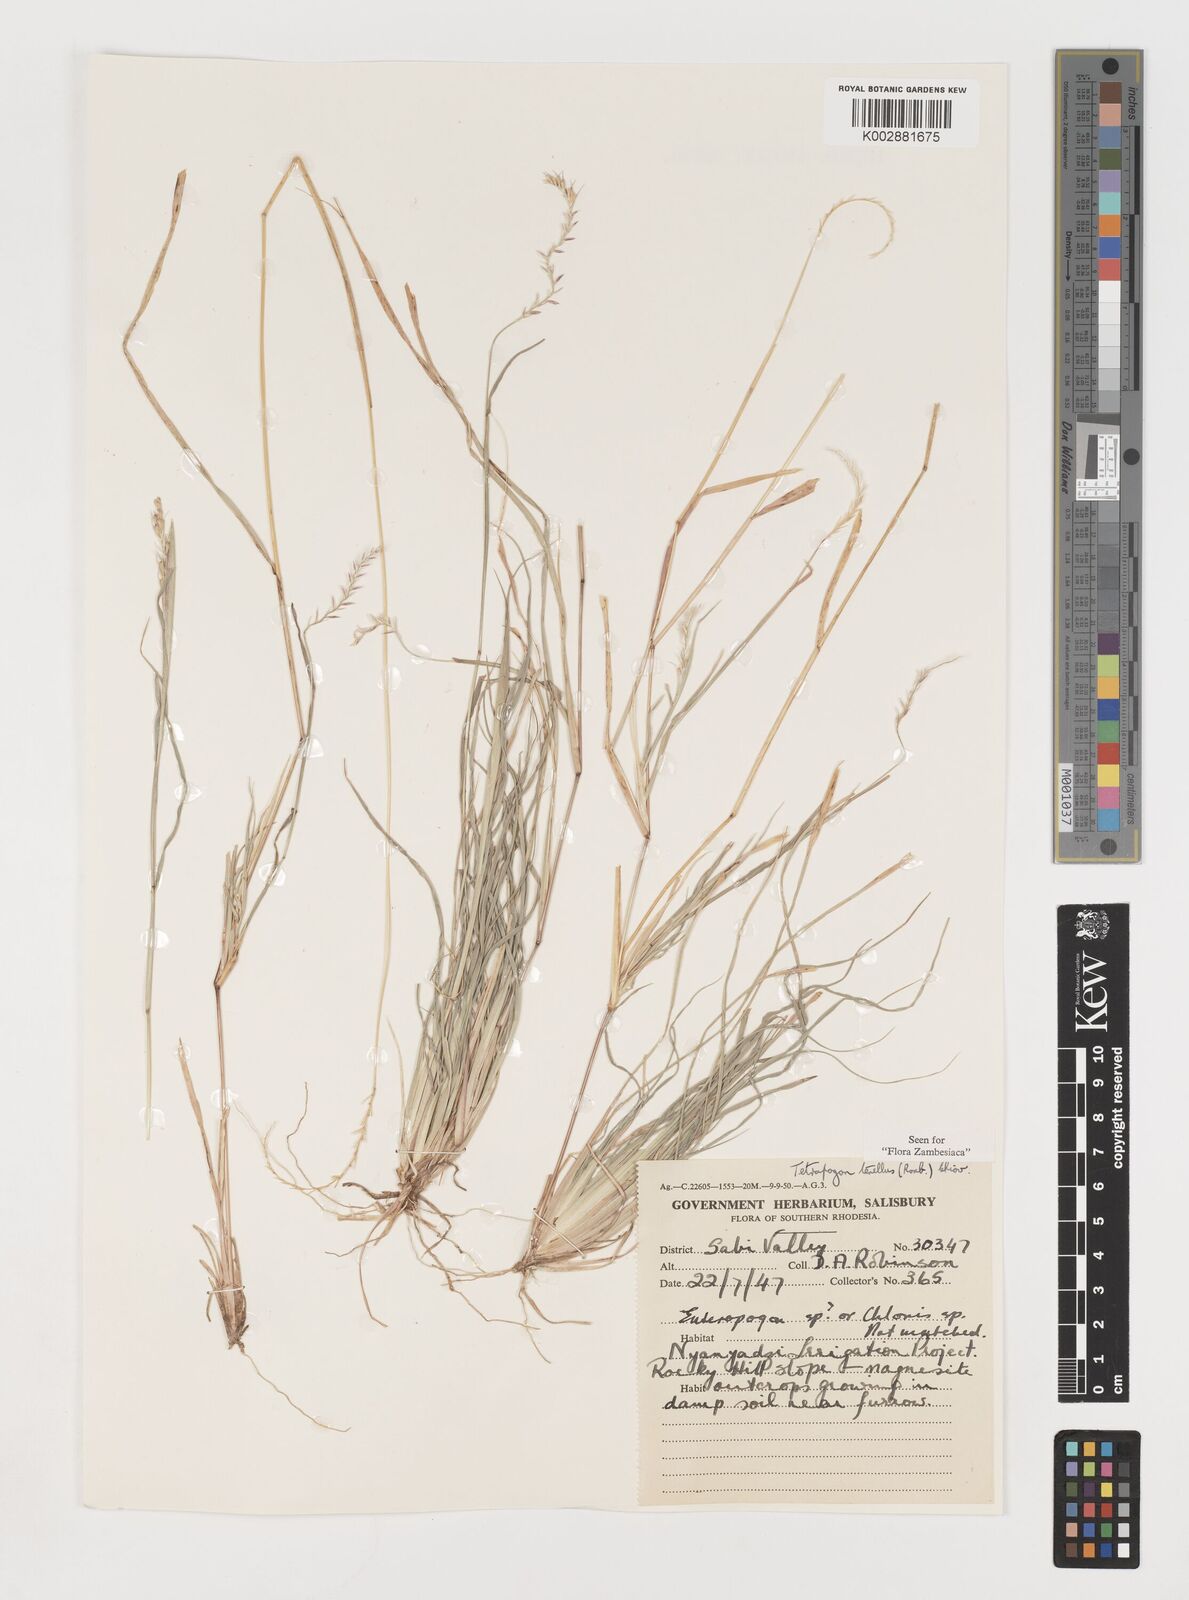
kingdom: Plantae
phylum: Tracheophyta
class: Liliopsida
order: Poales
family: Poaceae
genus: Tetrapogon
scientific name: Tetrapogon tenellus
